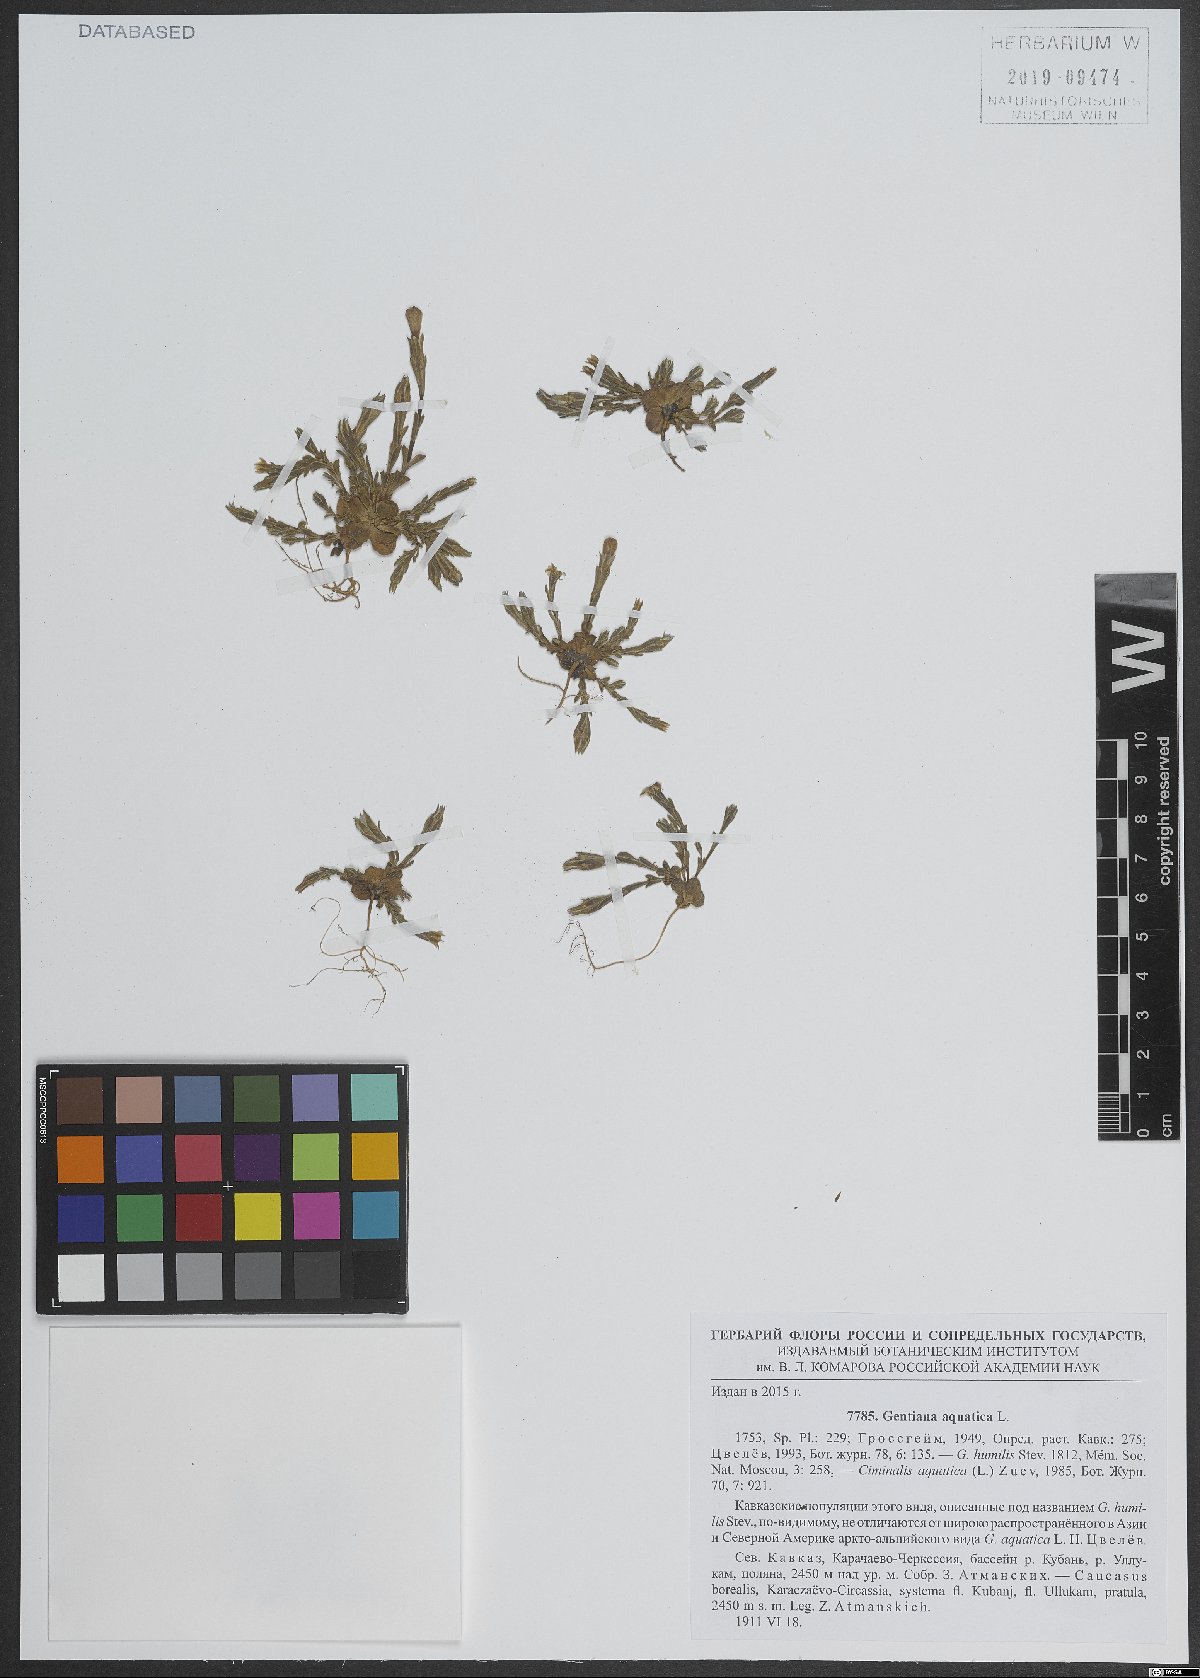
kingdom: Plantae
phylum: Tracheophyta
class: Magnoliopsida
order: Gentianales
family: Gentianaceae
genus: Gentiana
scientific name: Gentiana aquatica
